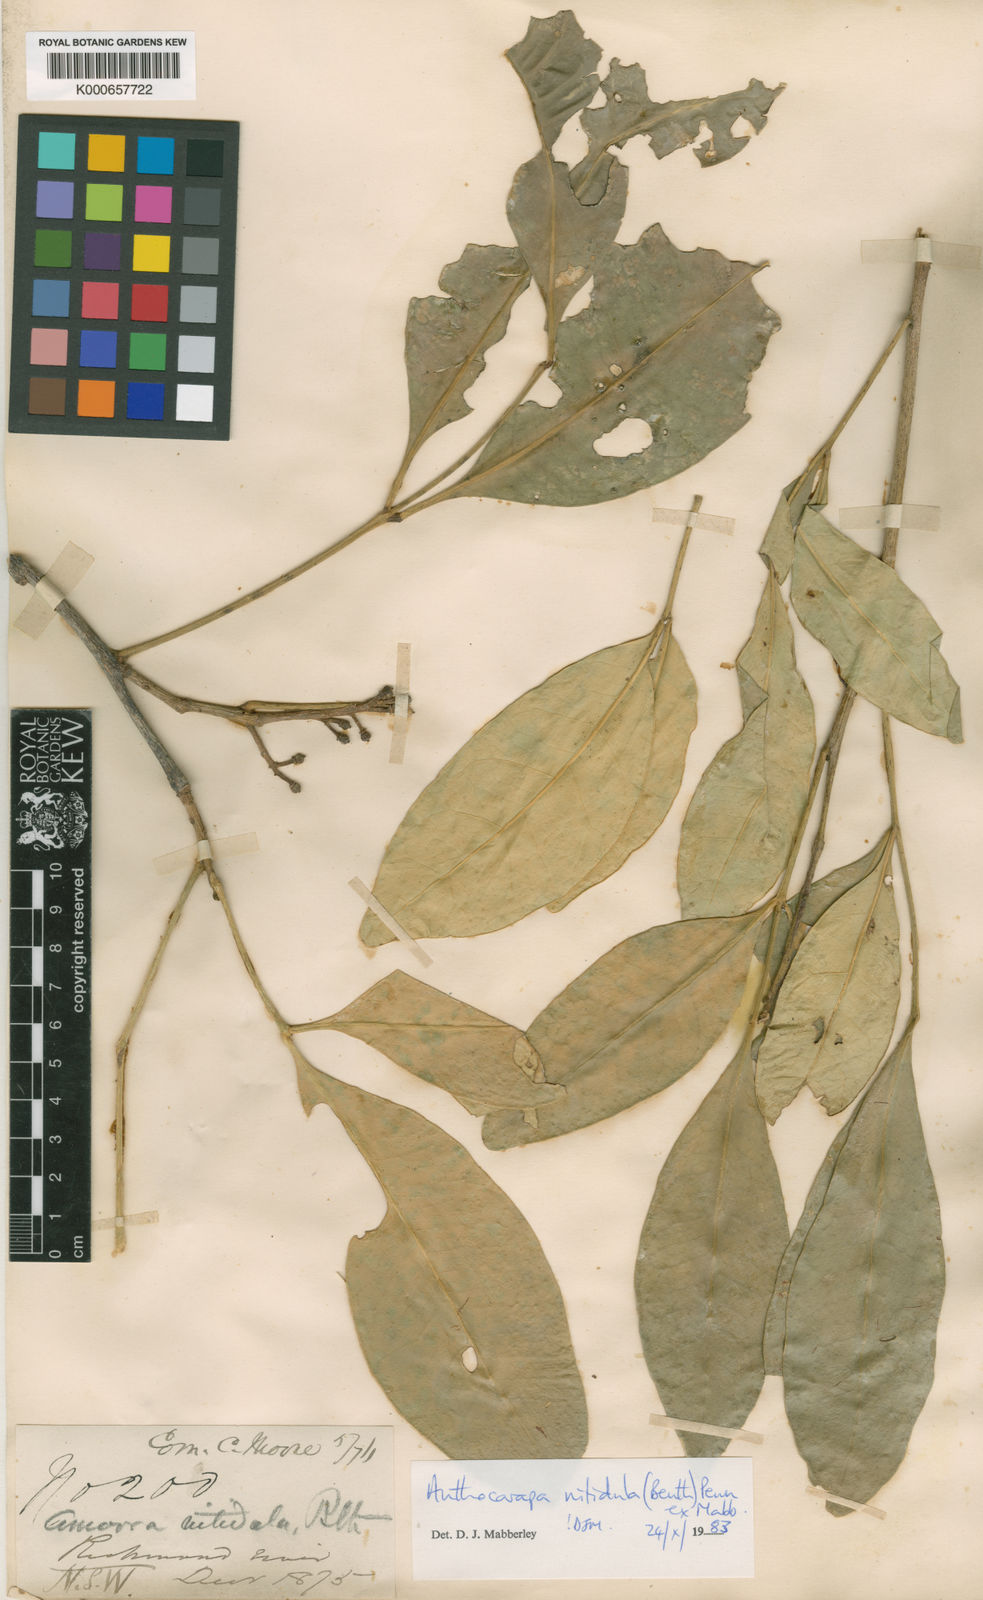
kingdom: Plantae
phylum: Tracheophyta
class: Magnoliopsida
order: Sapindales
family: Meliaceae
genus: Anthocarapa
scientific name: Anthocarapa nitidula
